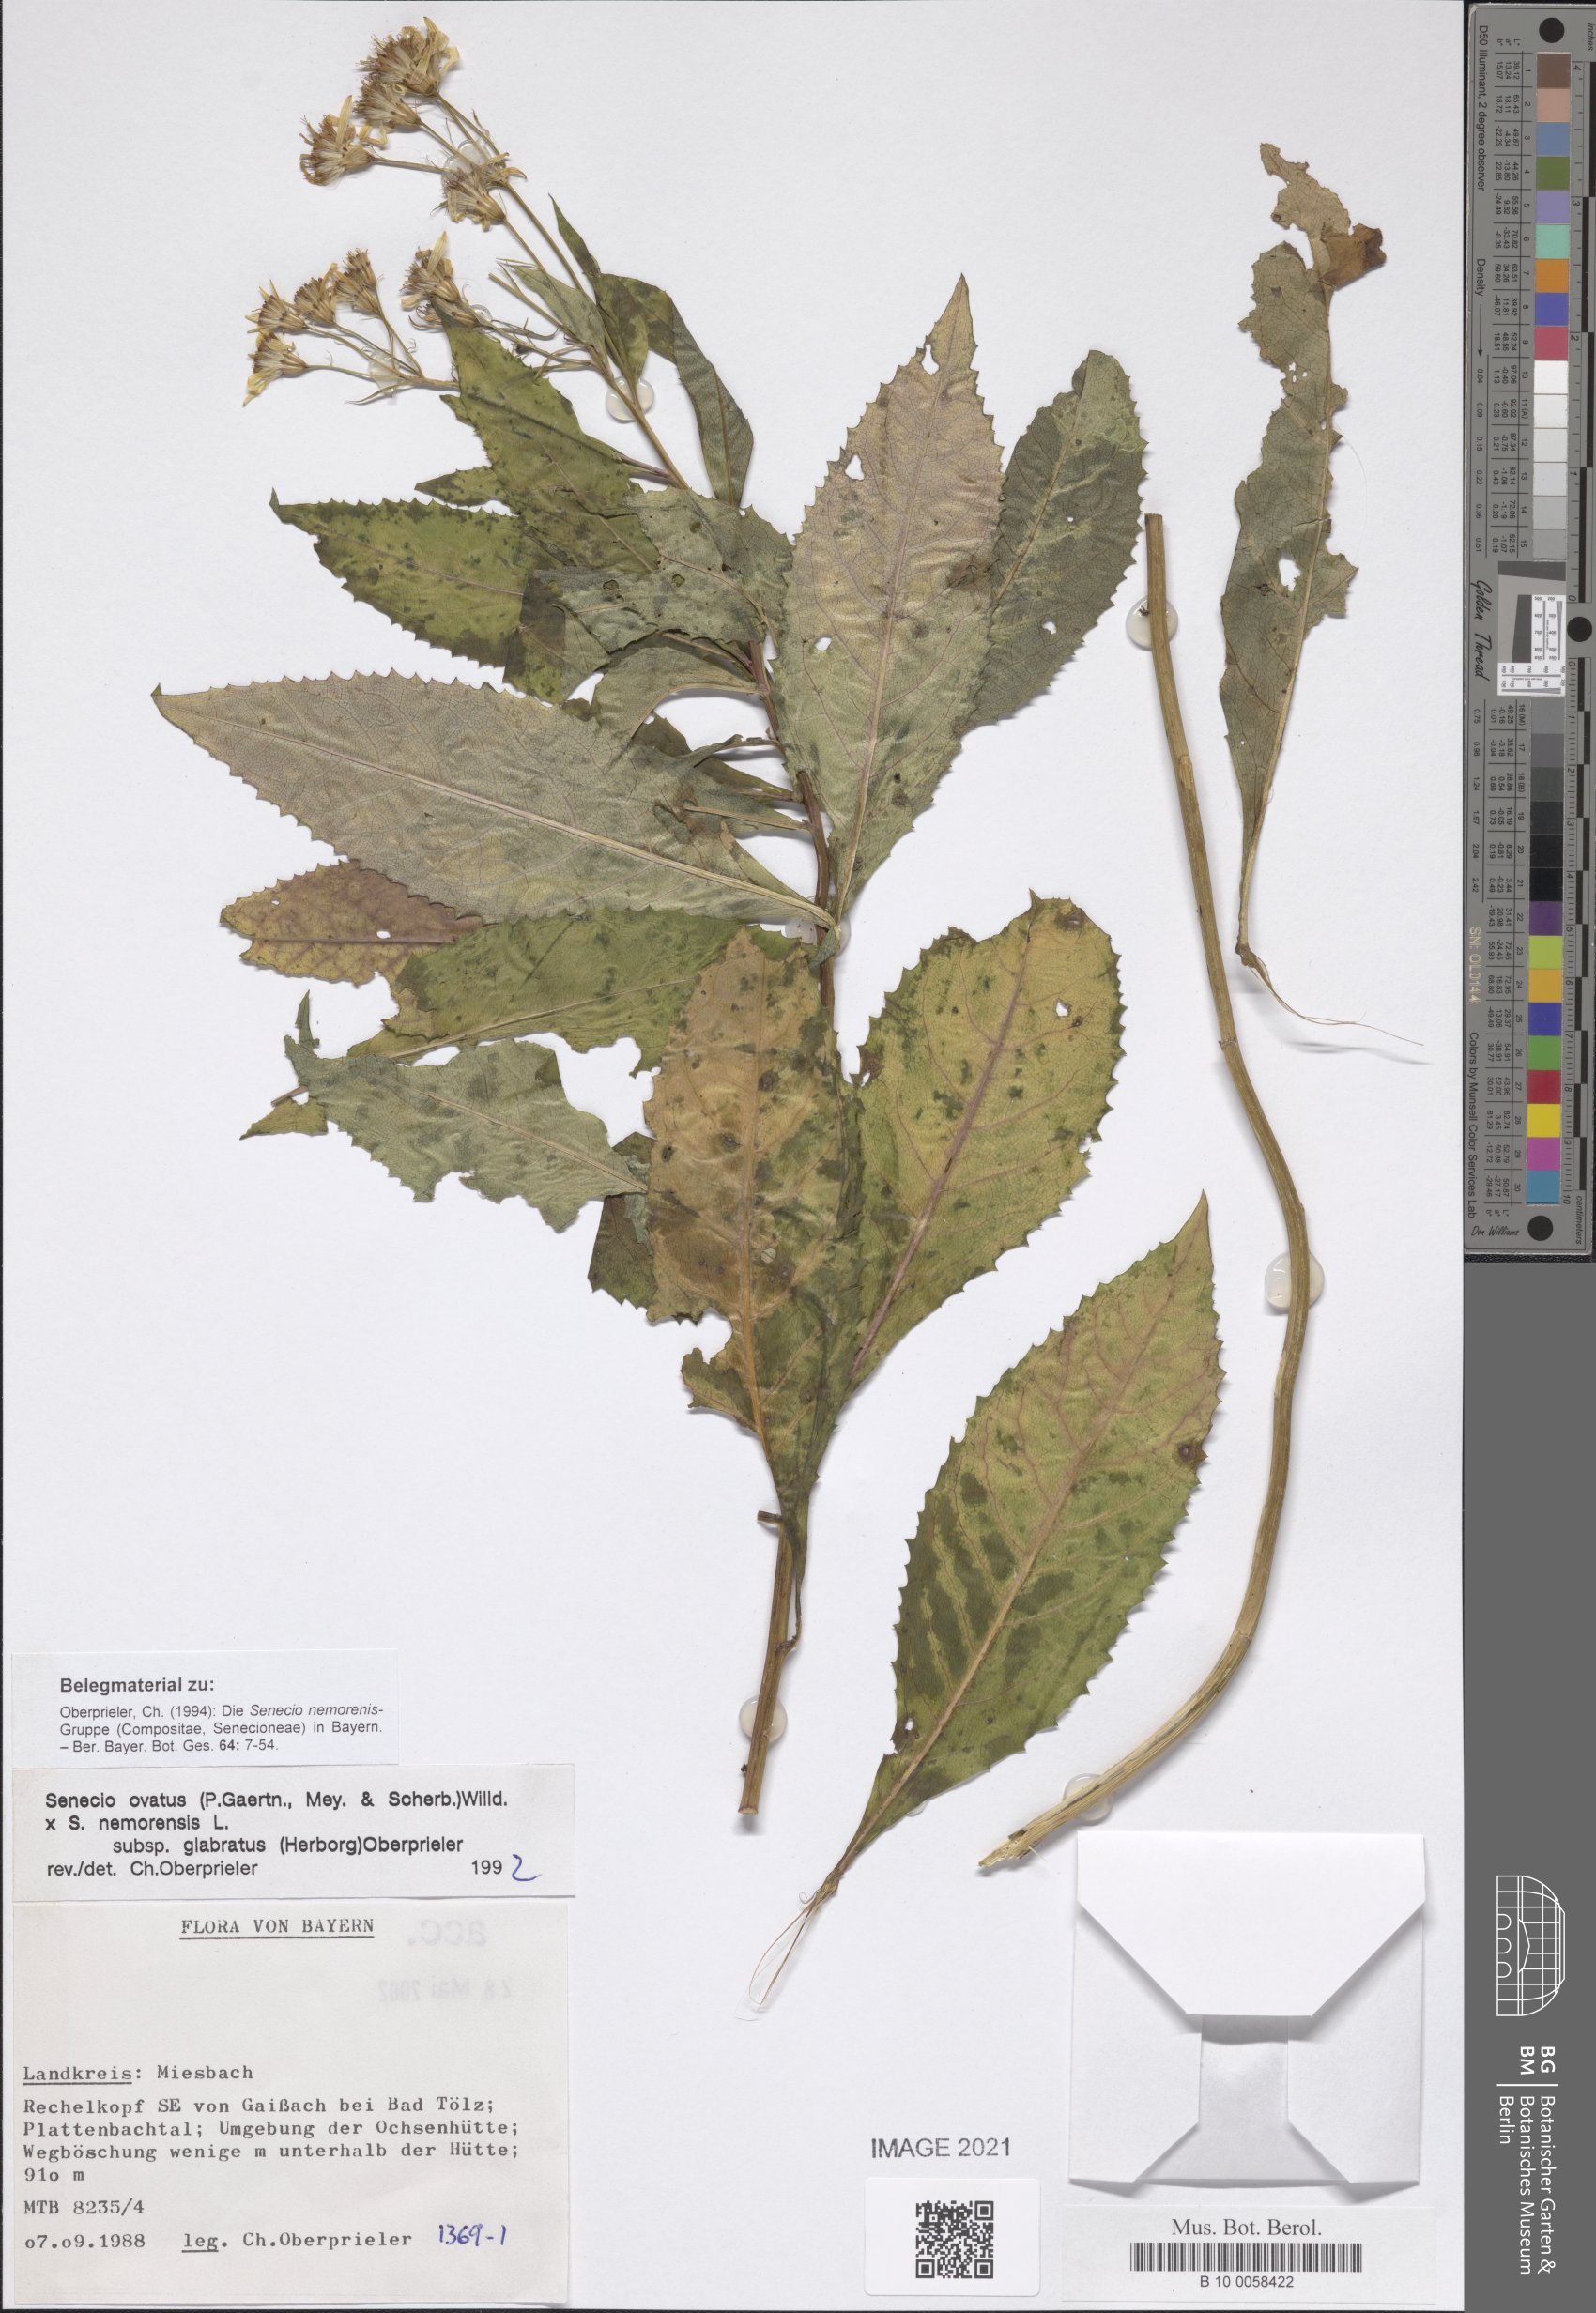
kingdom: Plantae
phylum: Tracheophyta
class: Magnoliopsida
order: Asterales
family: Asteraceae
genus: Senecio
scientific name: Senecio ovatus
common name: Wood ragwort
